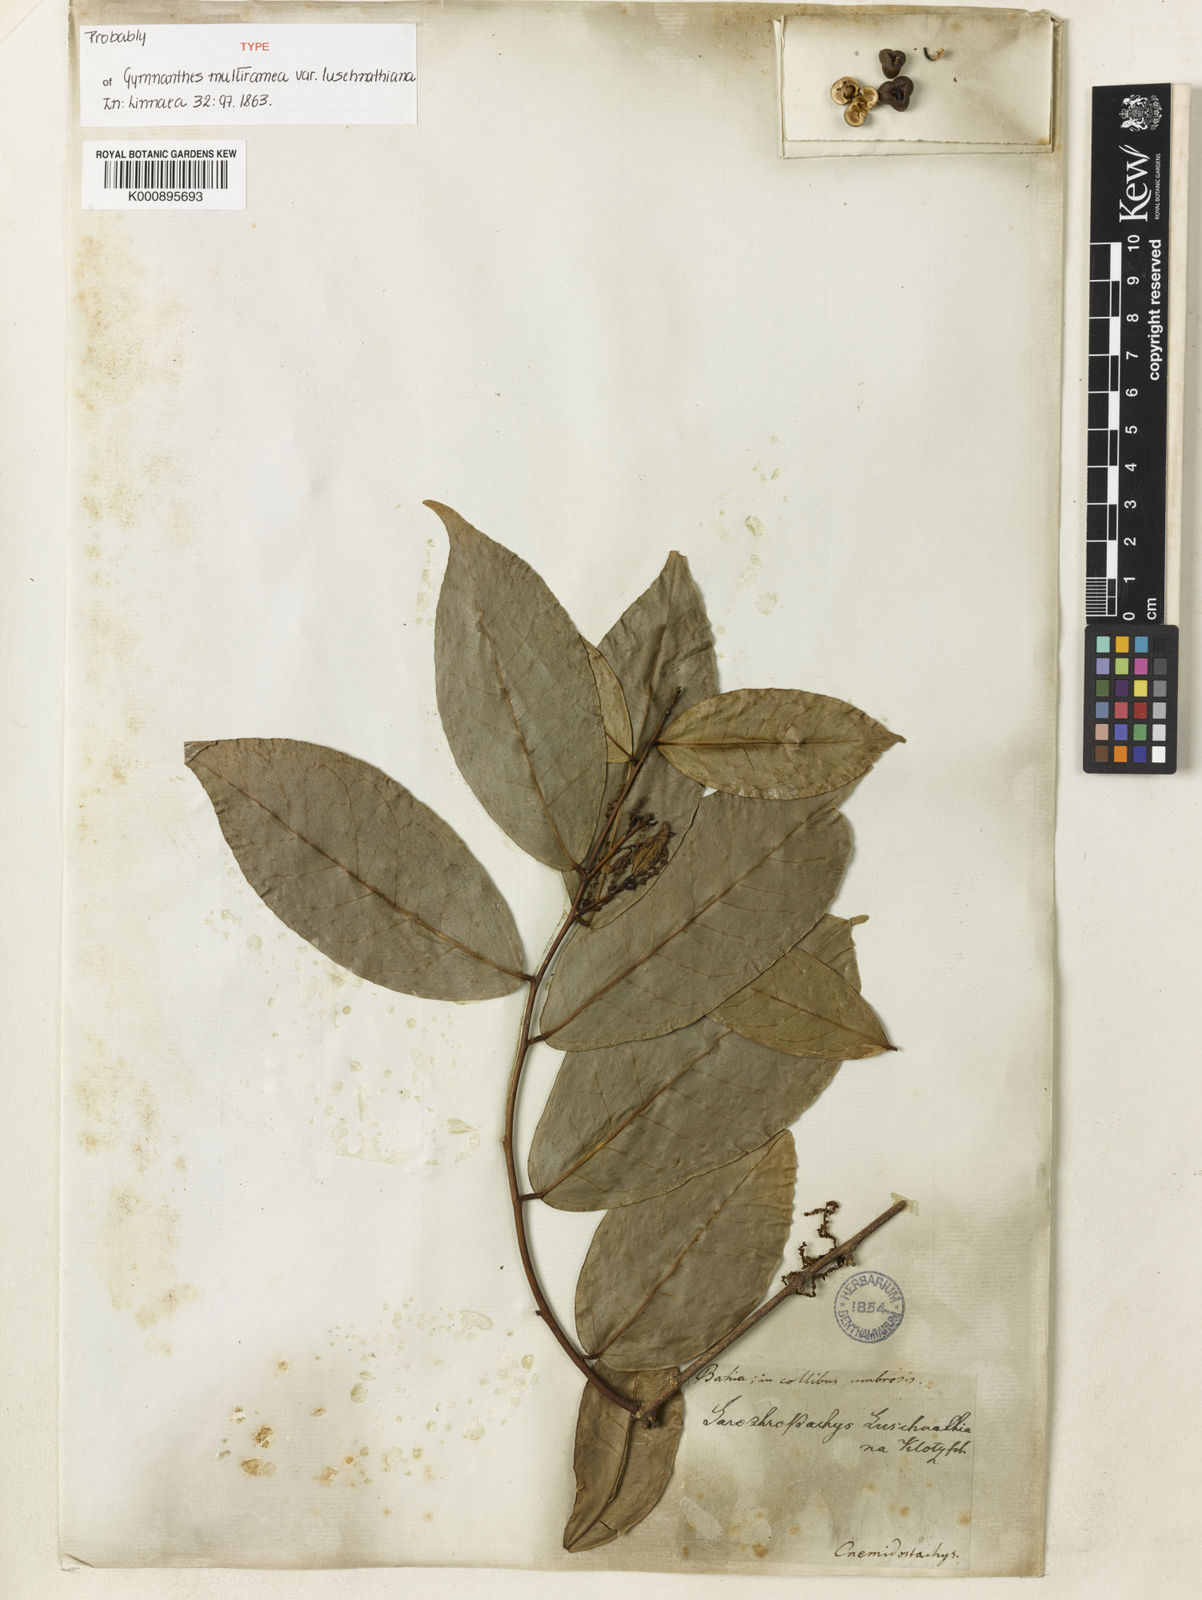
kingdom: Plantae
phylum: Tracheophyta
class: Magnoliopsida
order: Malpighiales
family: Euphorbiaceae
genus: Gymnanthes
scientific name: Gymnanthes
